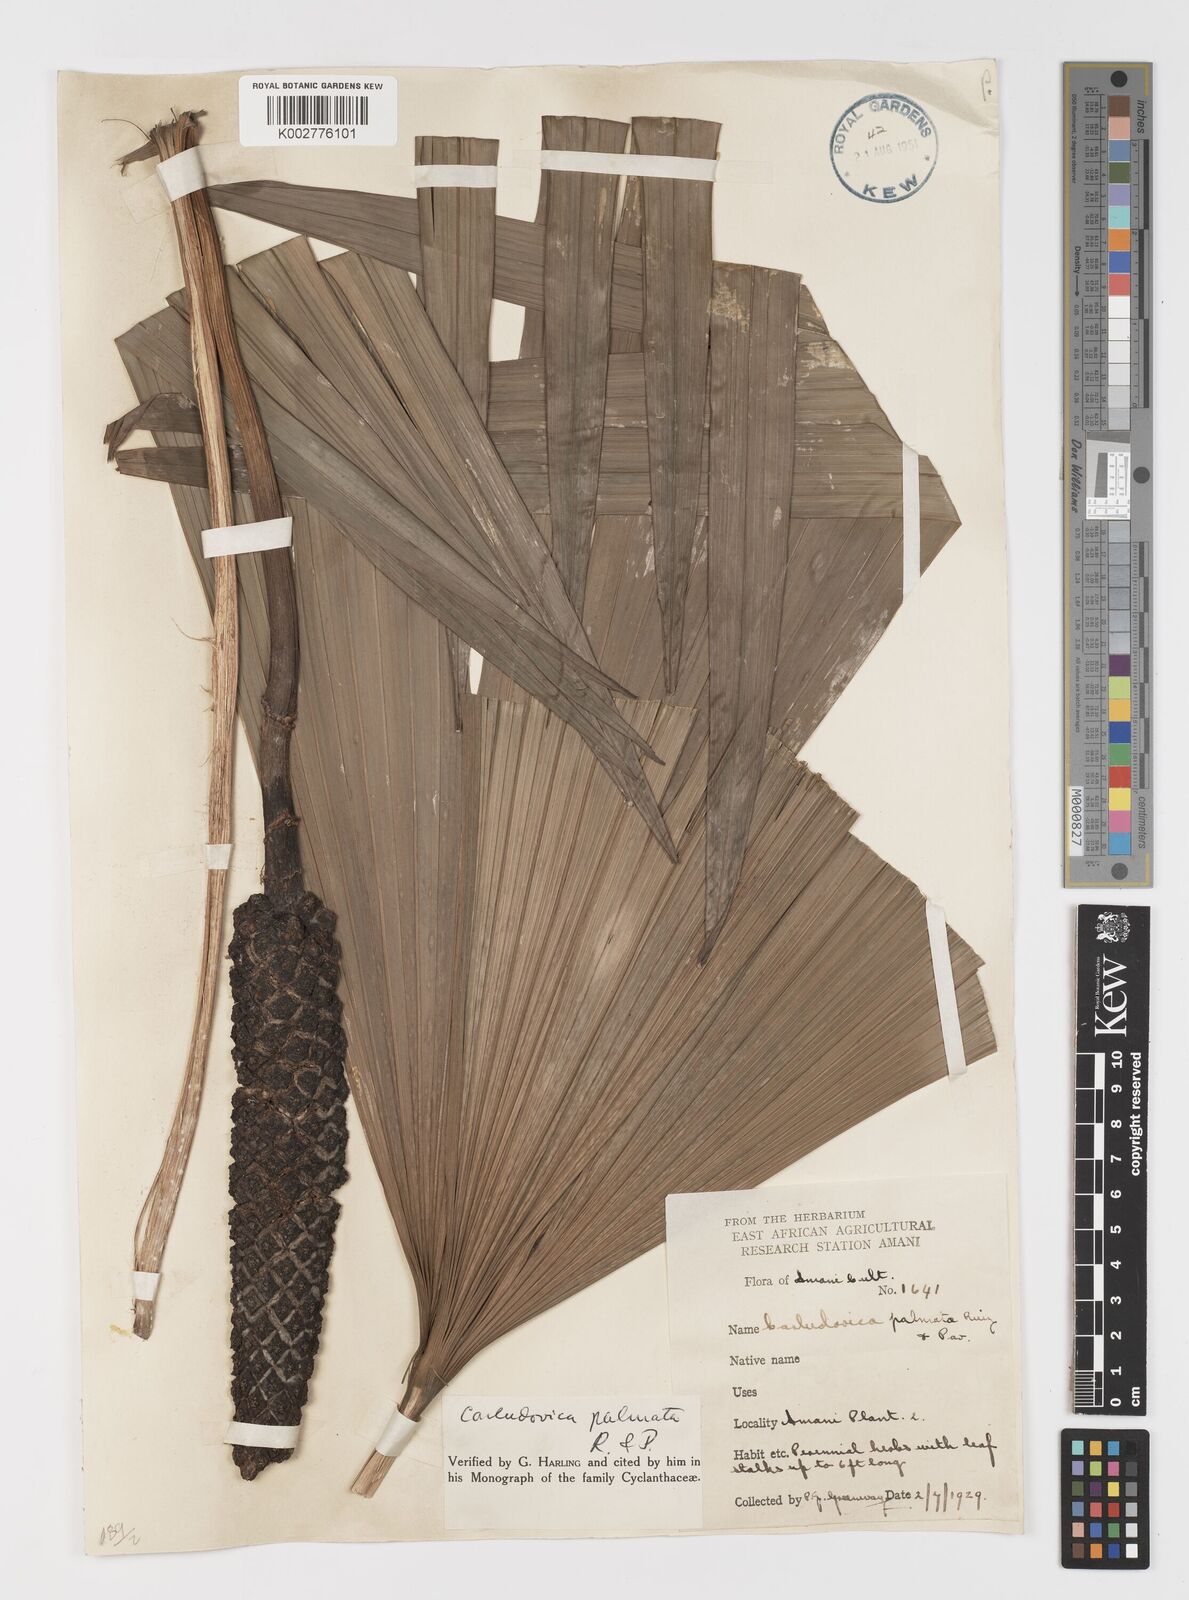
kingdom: Plantae
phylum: Tracheophyta
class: Liliopsida
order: Pandanales
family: Cyclanthaceae
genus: Carludovica
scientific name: Carludovica palmata
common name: Panama hat plant
